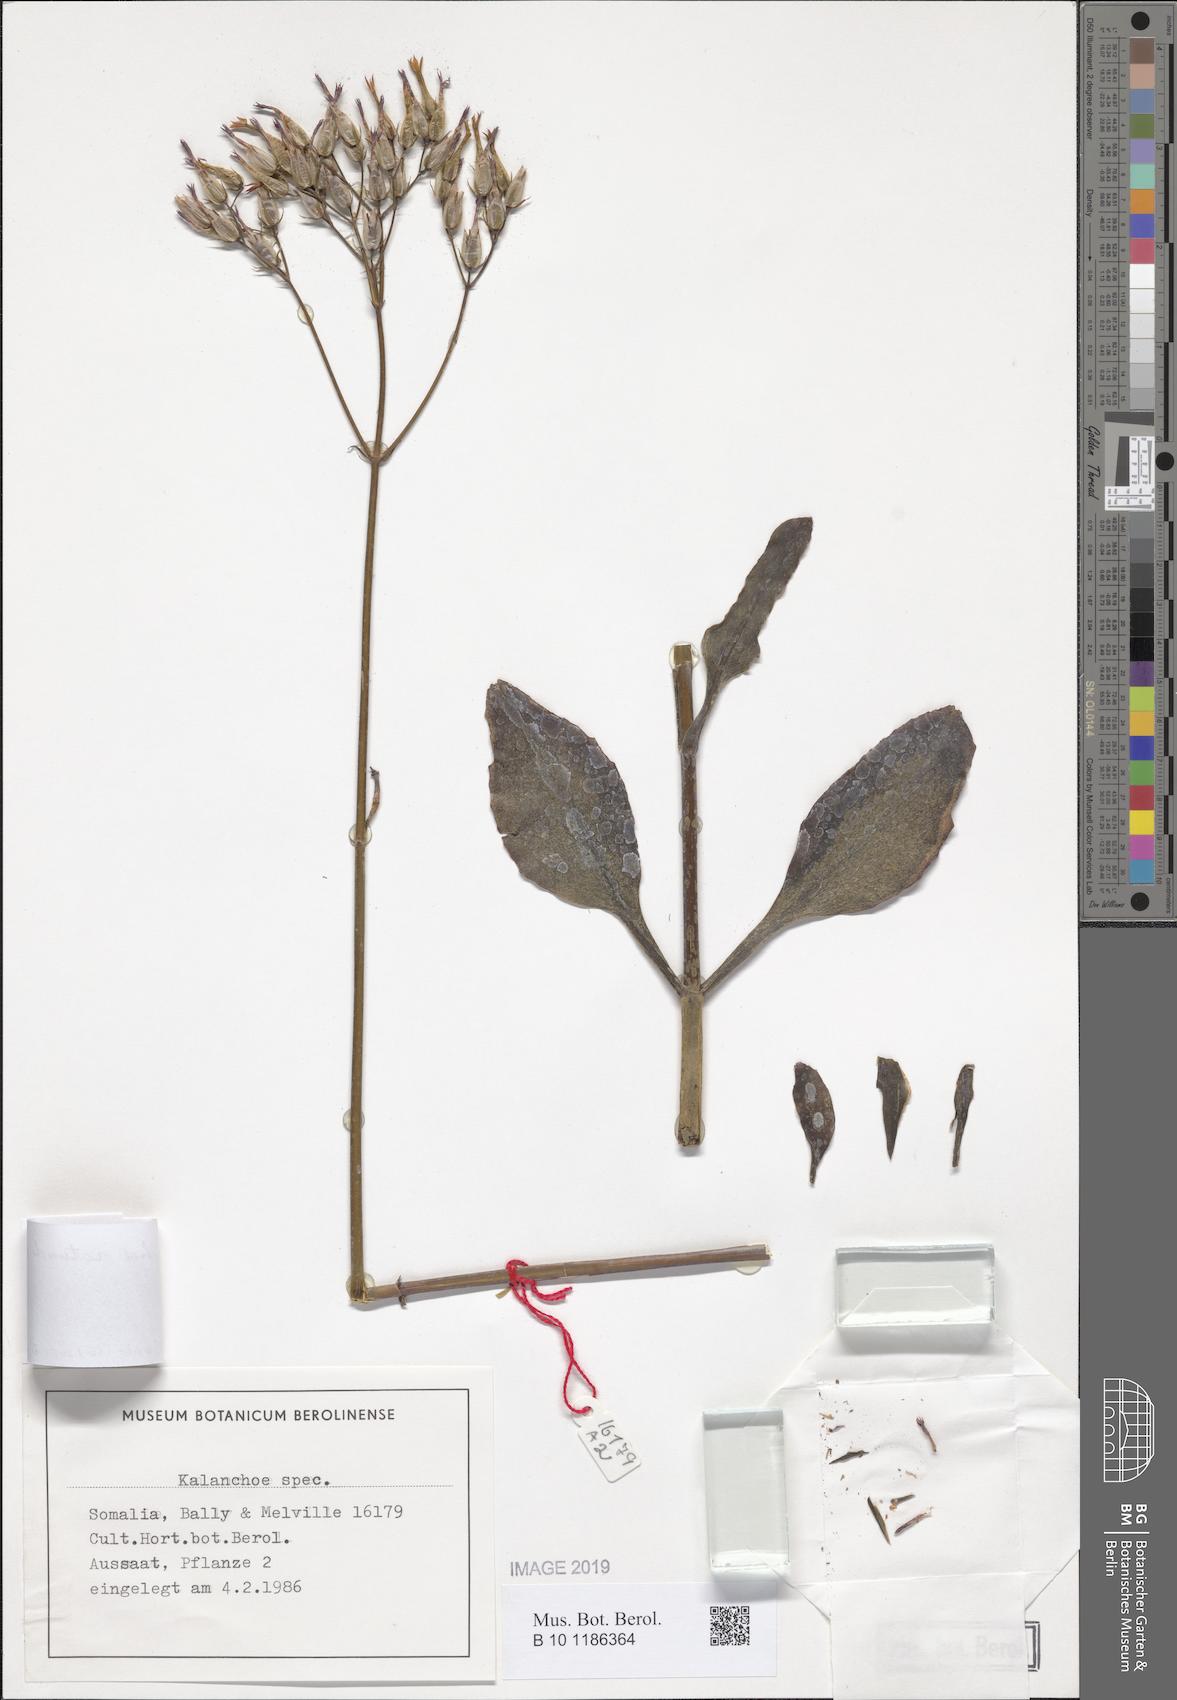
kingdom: Plantae
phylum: Tracheophyta
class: Magnoliopsida
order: Saxifragales
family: Crassulaceae
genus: Kalanchoe
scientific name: Kalanchoe rotundifolia
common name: Common kalanchoe
